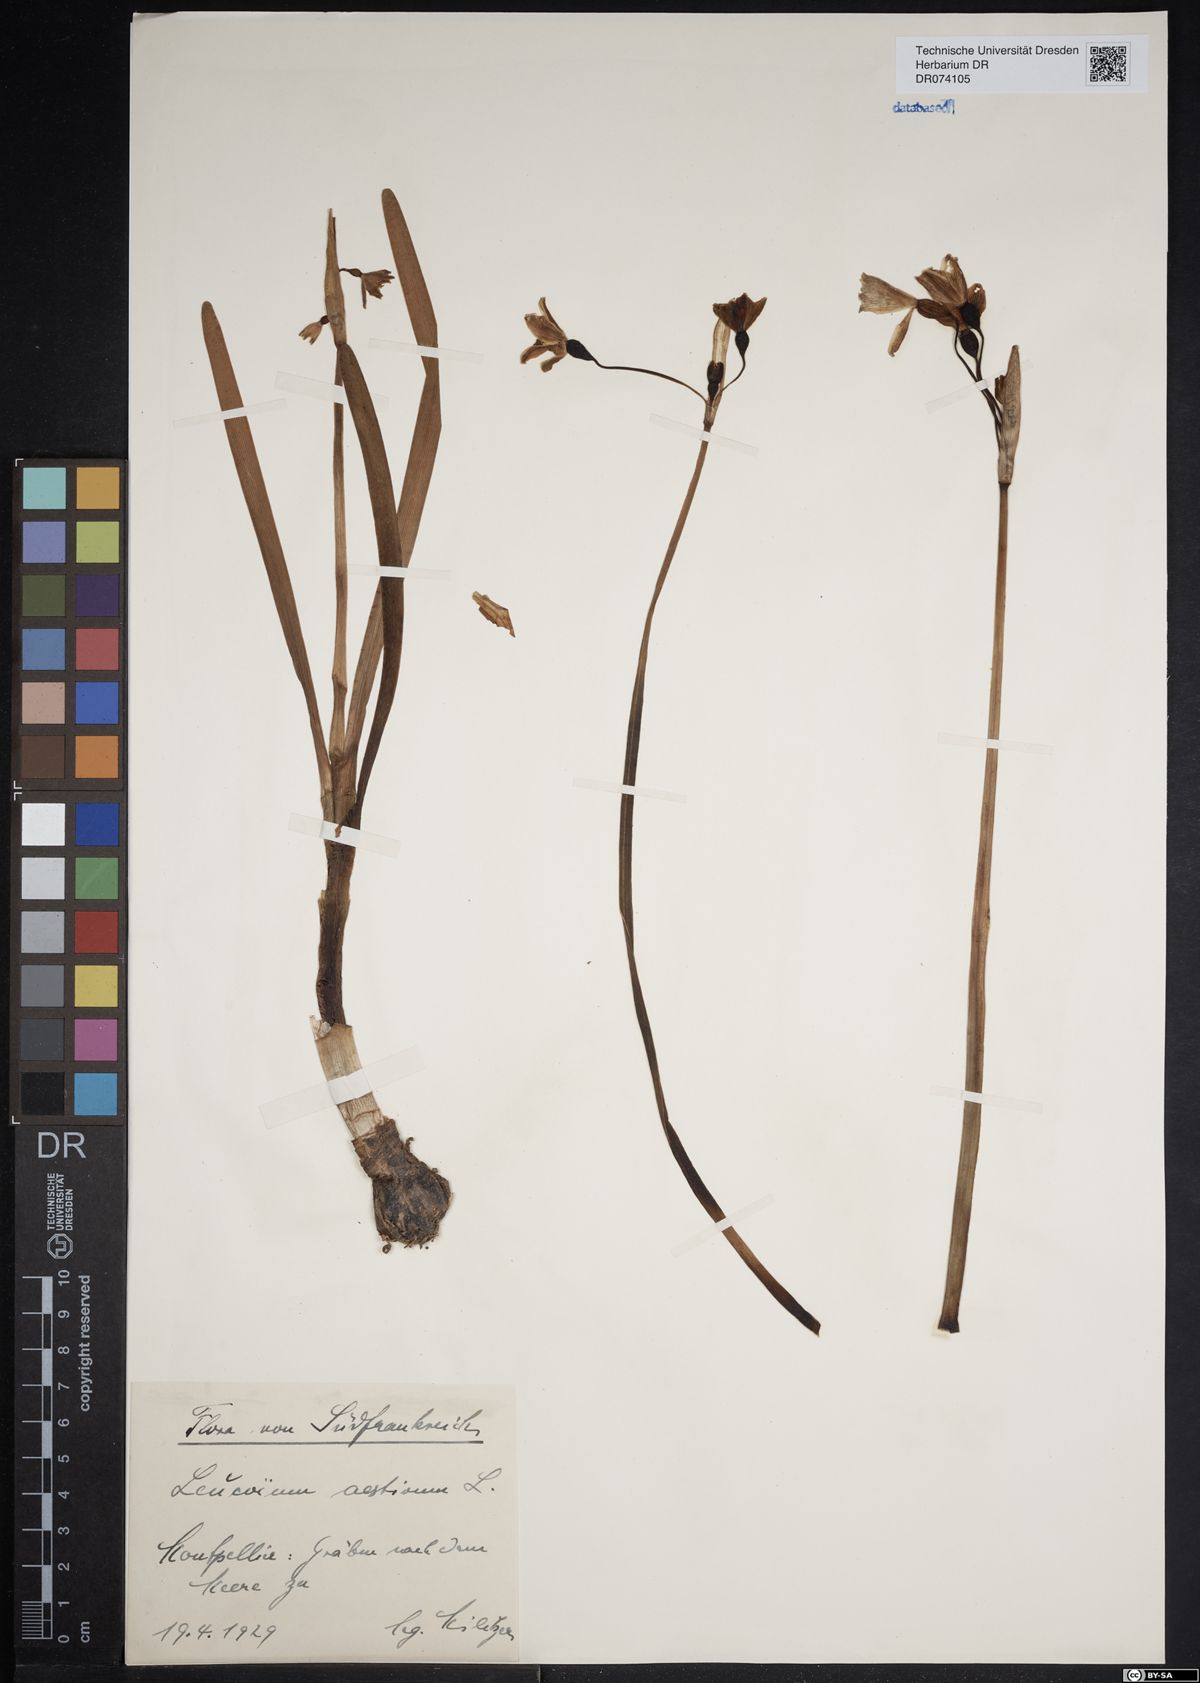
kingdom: Plantae
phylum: Tracheophyta
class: Liliopsida
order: Asparagales
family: Amaryllidaceae
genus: Leucojum
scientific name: Leucojum aestivum
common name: Summer snowflake
